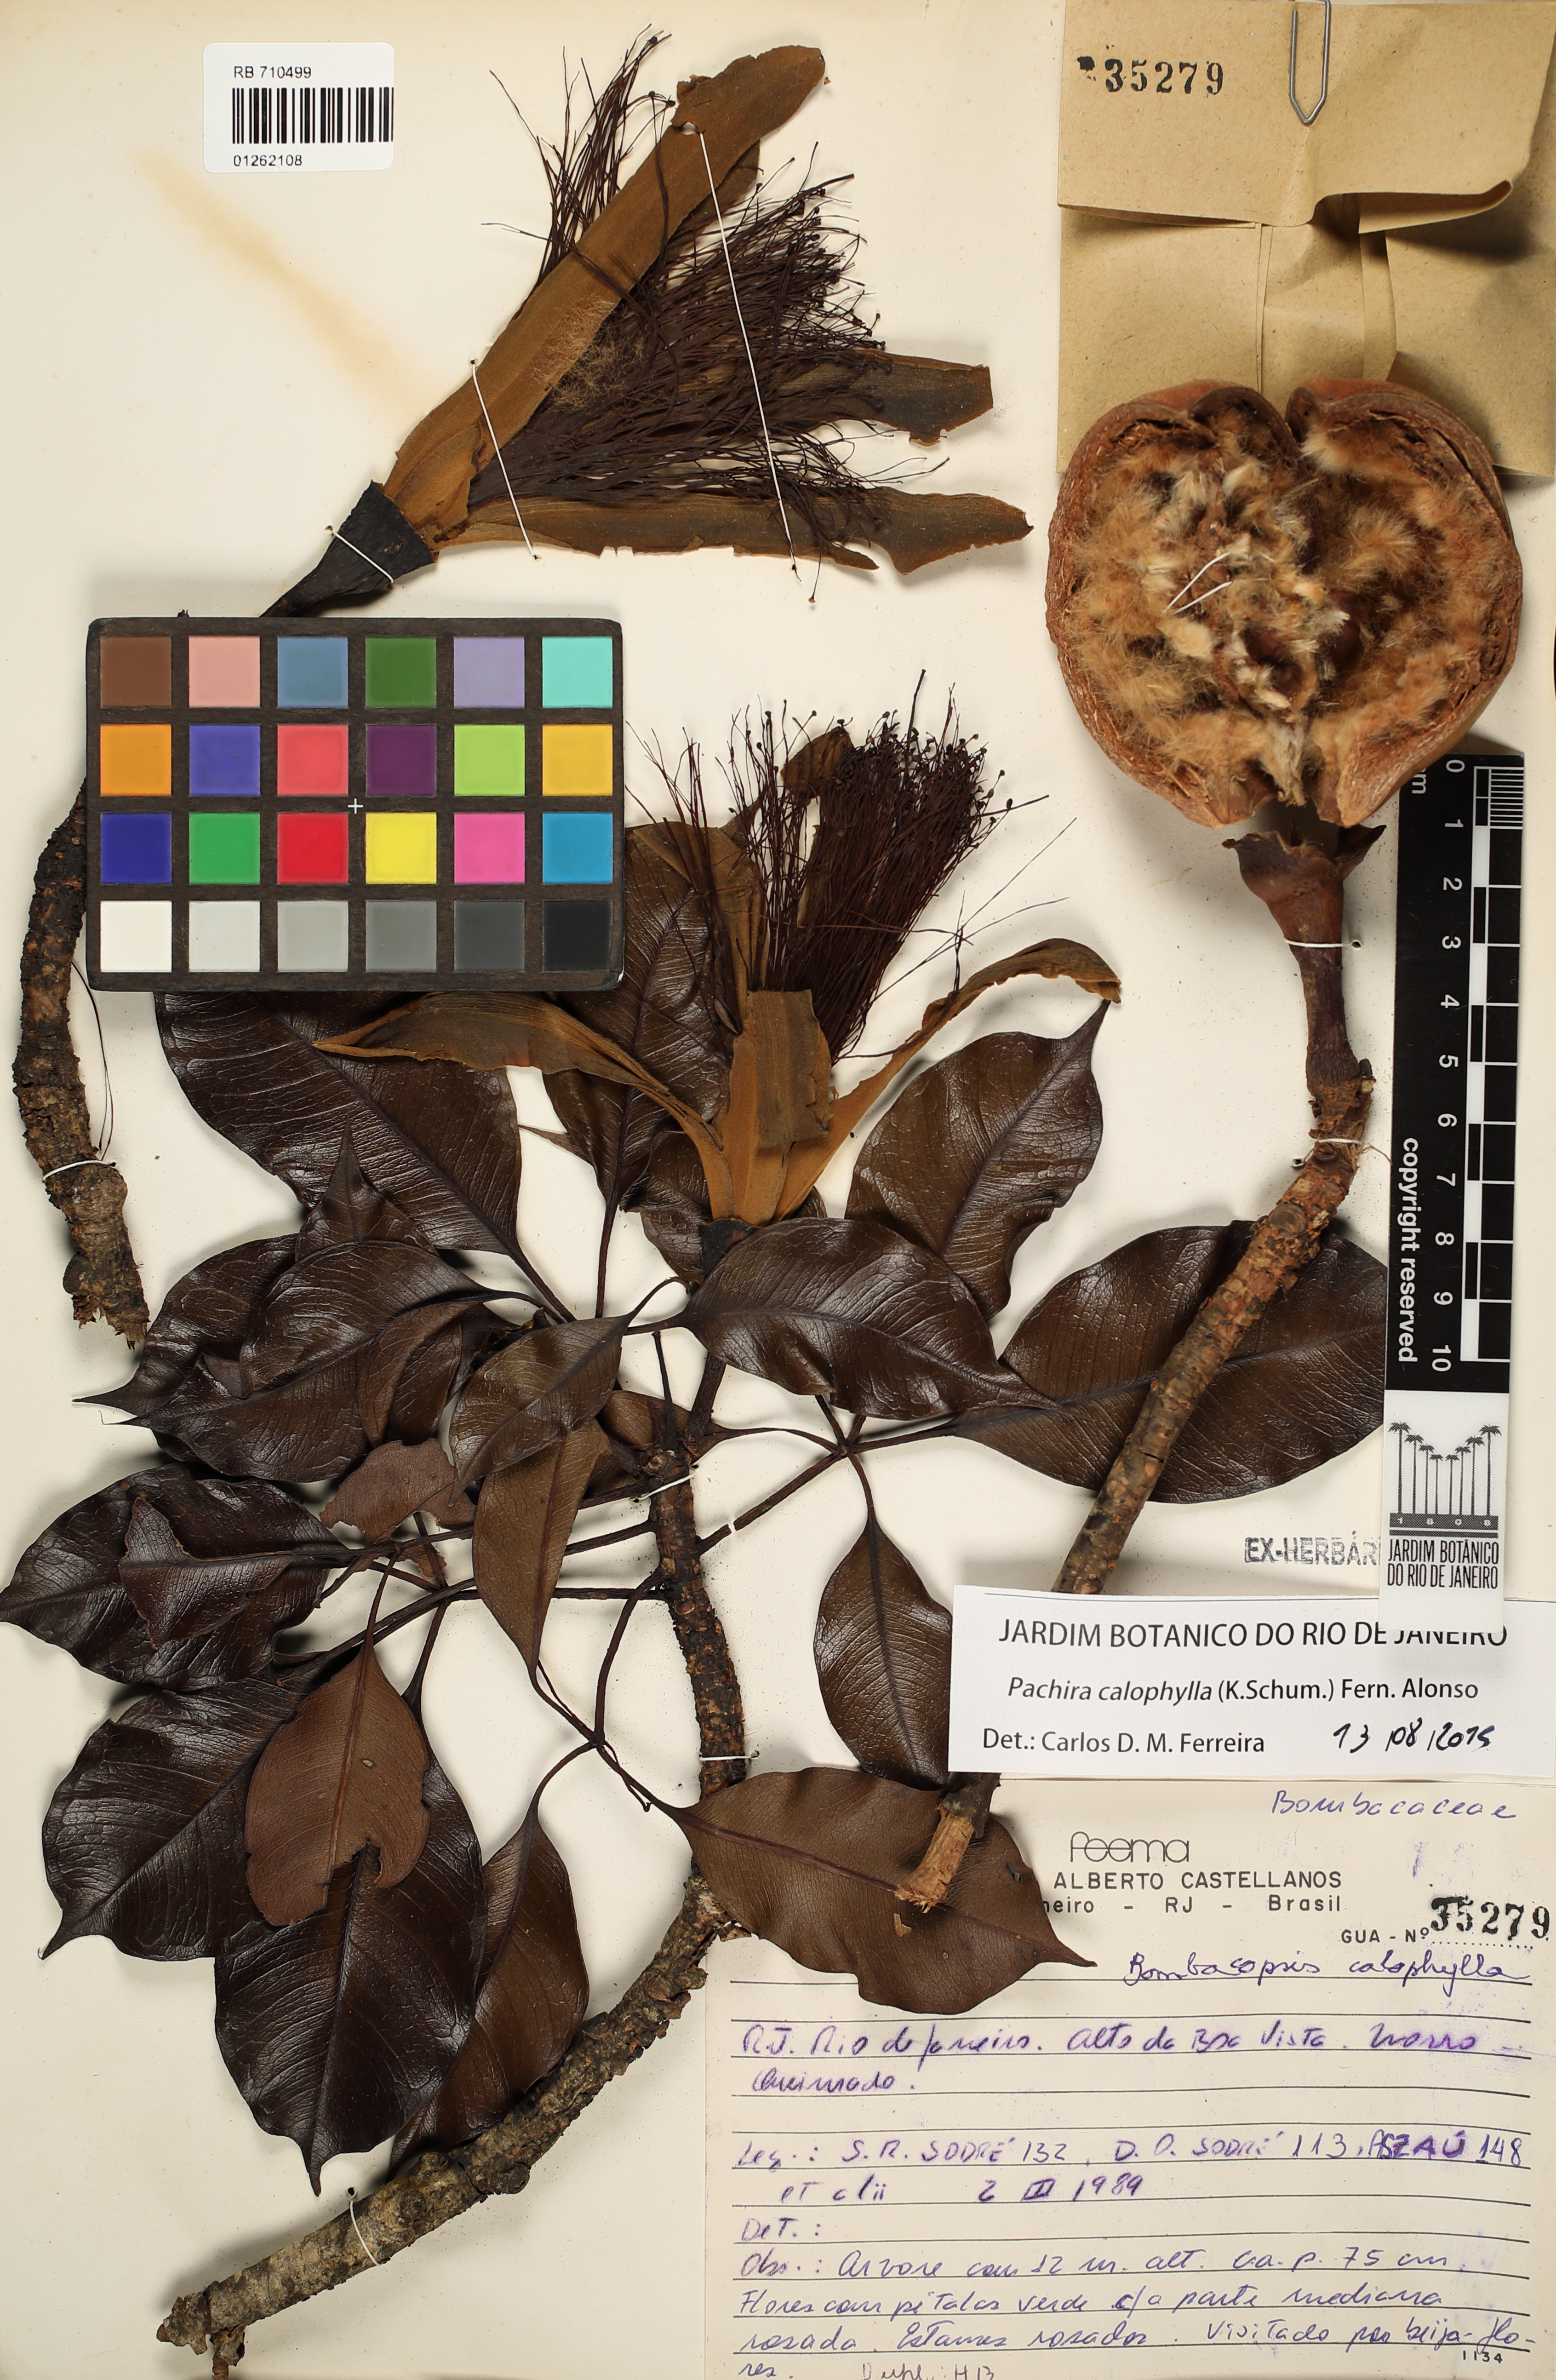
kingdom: Plantae
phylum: Tracheophyta
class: Magnoliopsida
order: Malvales
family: Malvaceae
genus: Pachira
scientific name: Pachira calophylla
